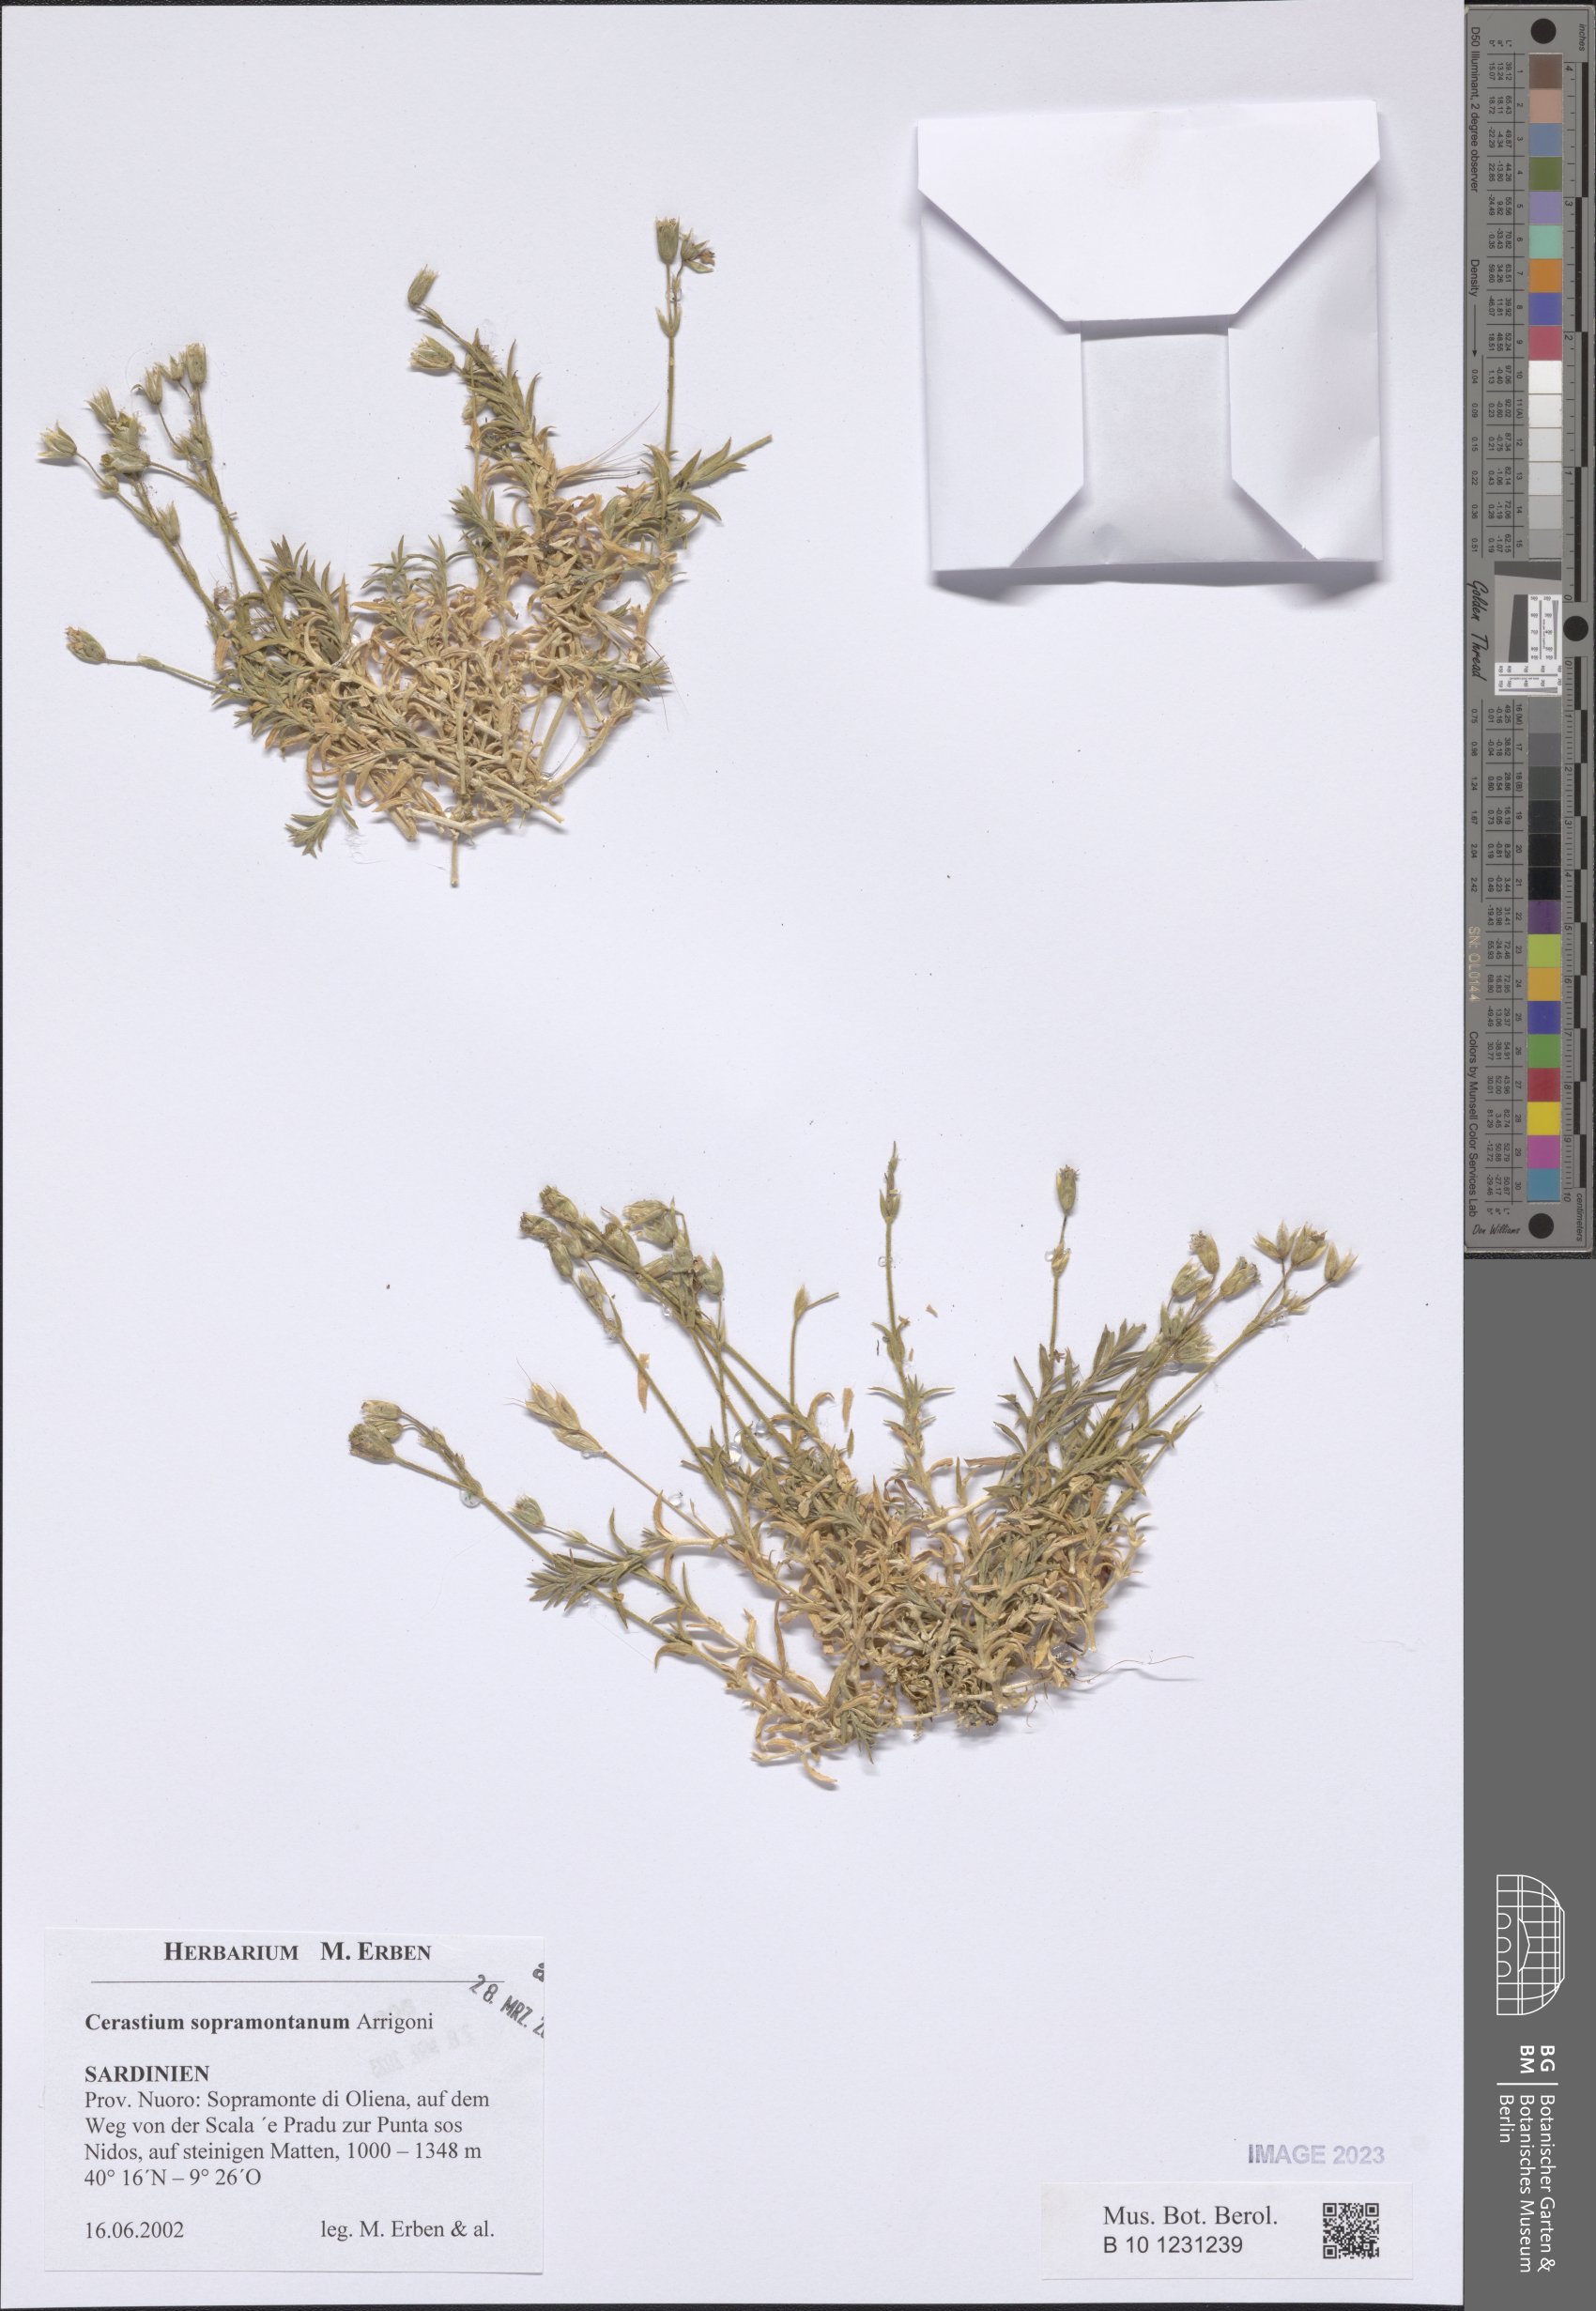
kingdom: Plantae
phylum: Tracheophyta
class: Magnoliopsida
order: Caryophyllales
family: Caryophyllaceae
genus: Cerastium
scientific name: Cerastium supramontanum
